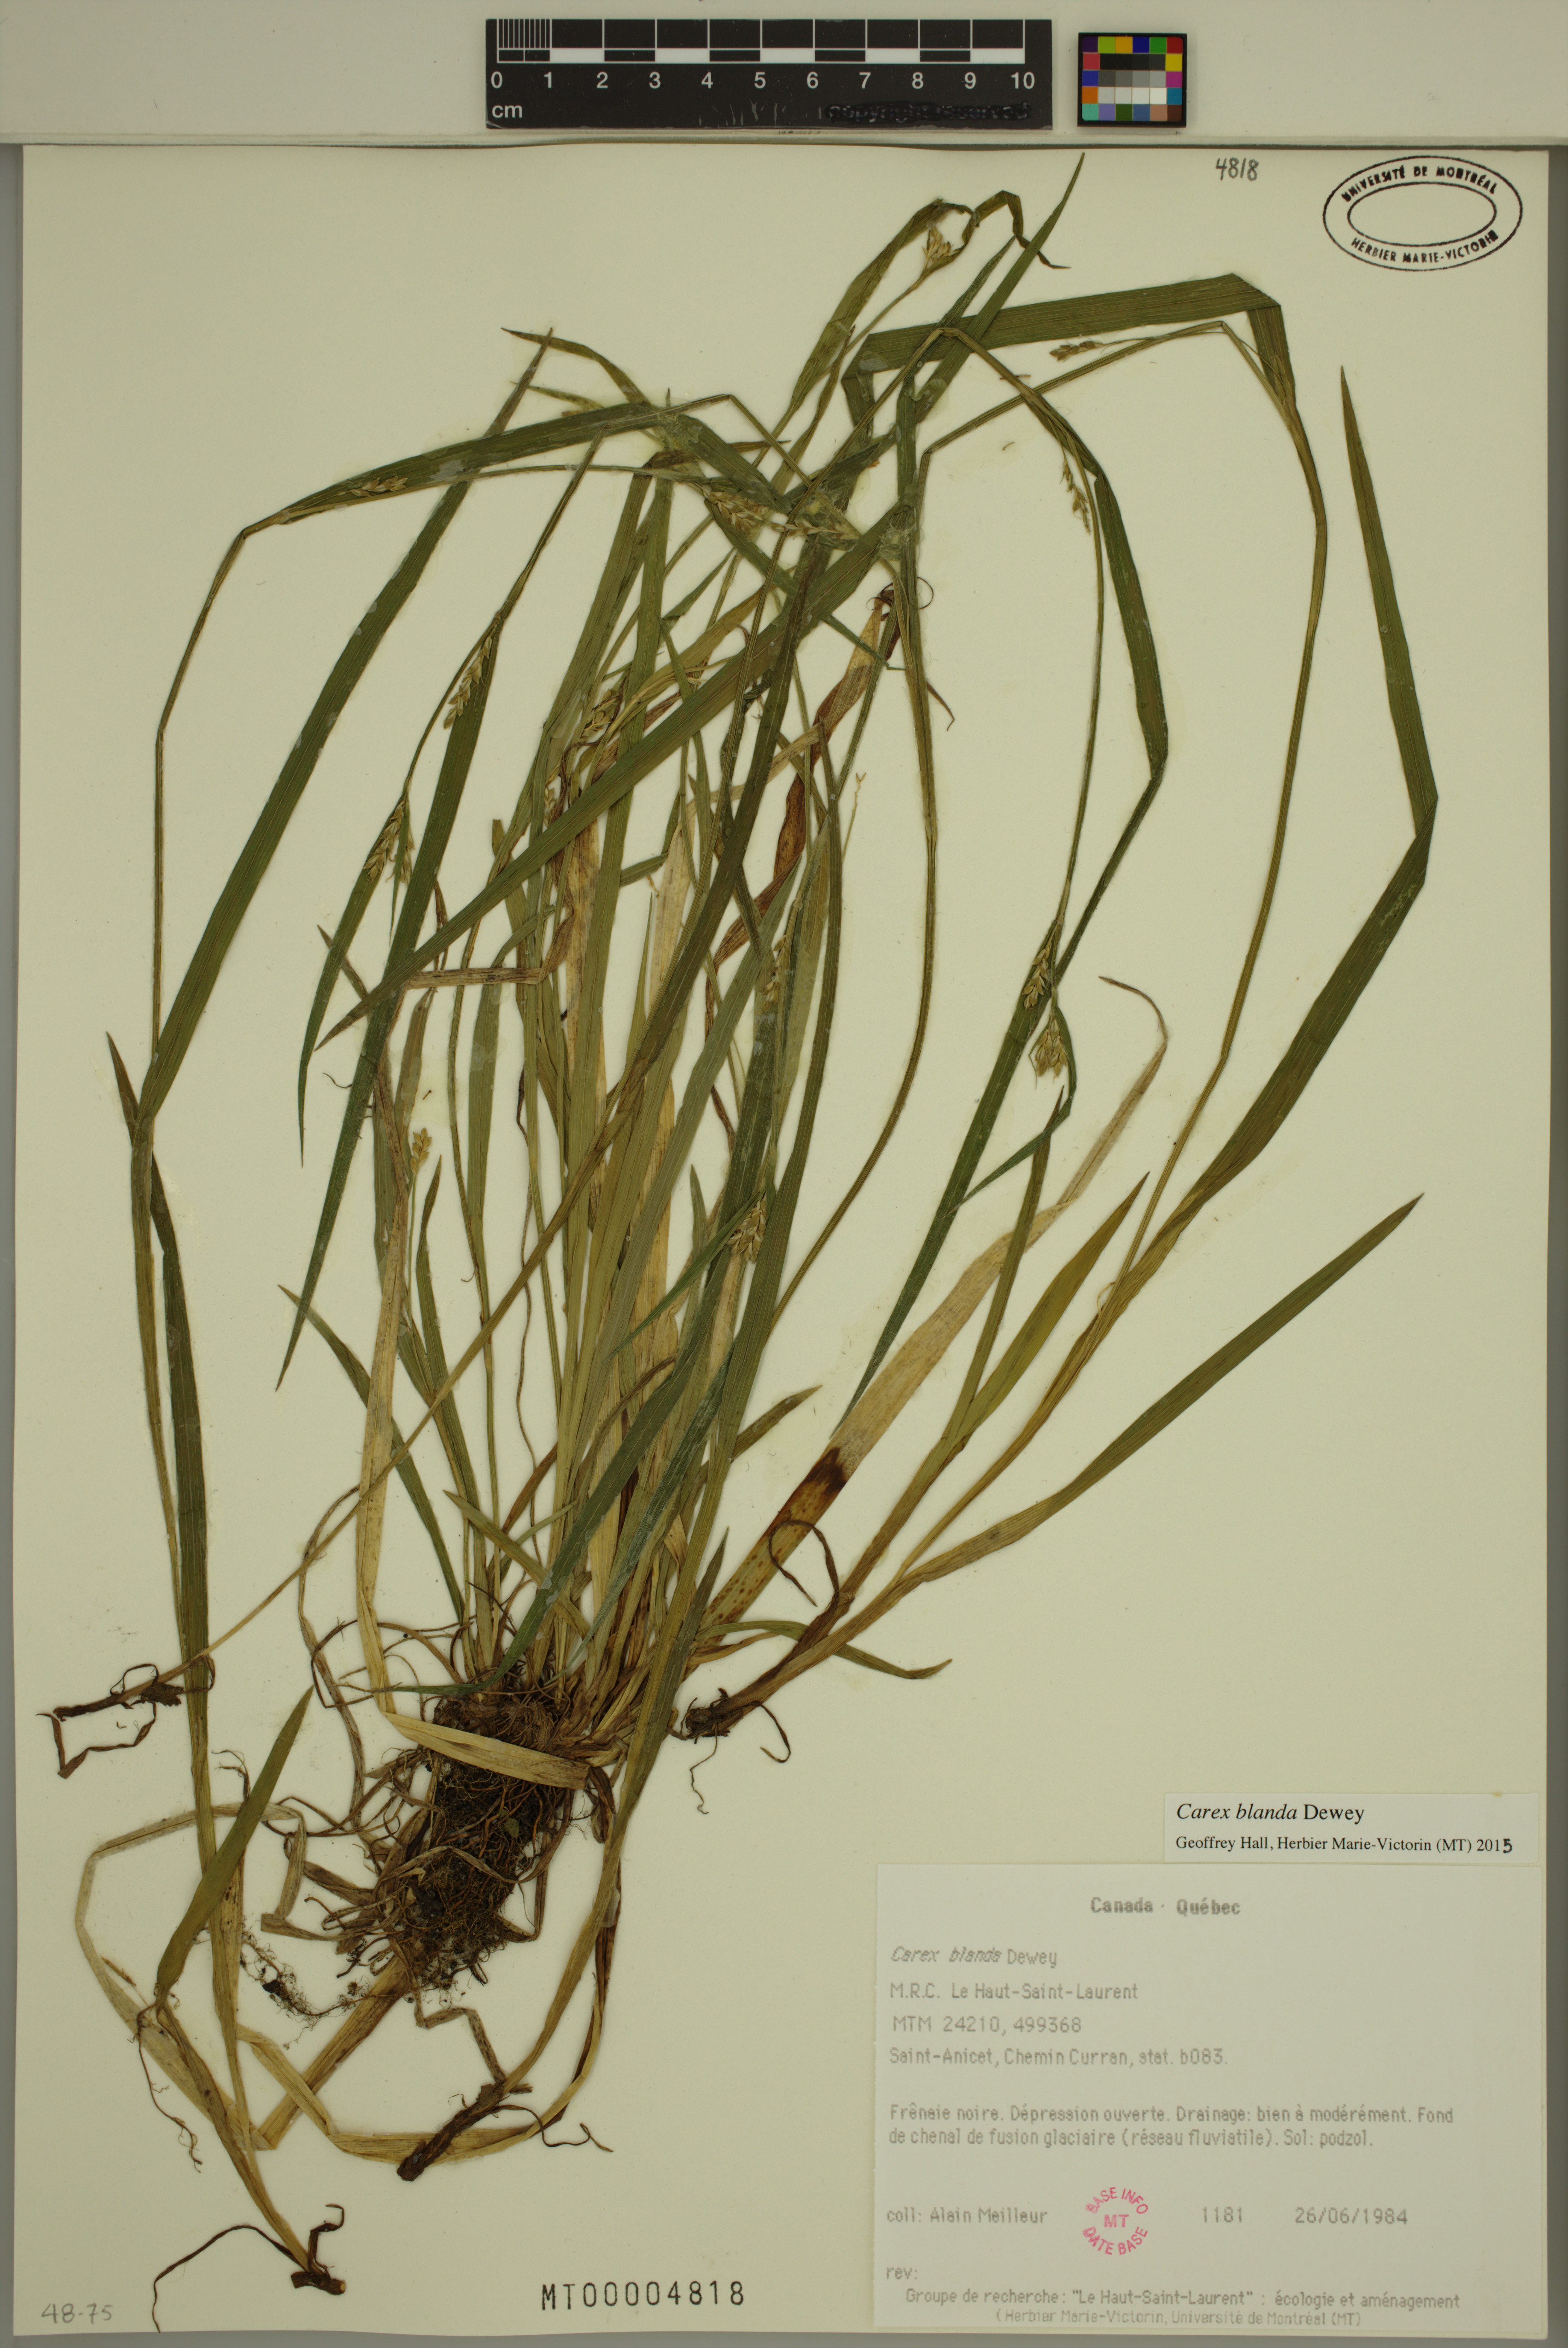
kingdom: Plantae
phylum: Tracheophyta
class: Liliopsida
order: Poales
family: Cyperaceae
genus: Carex
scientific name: Carex blanda
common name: Bland sedge
